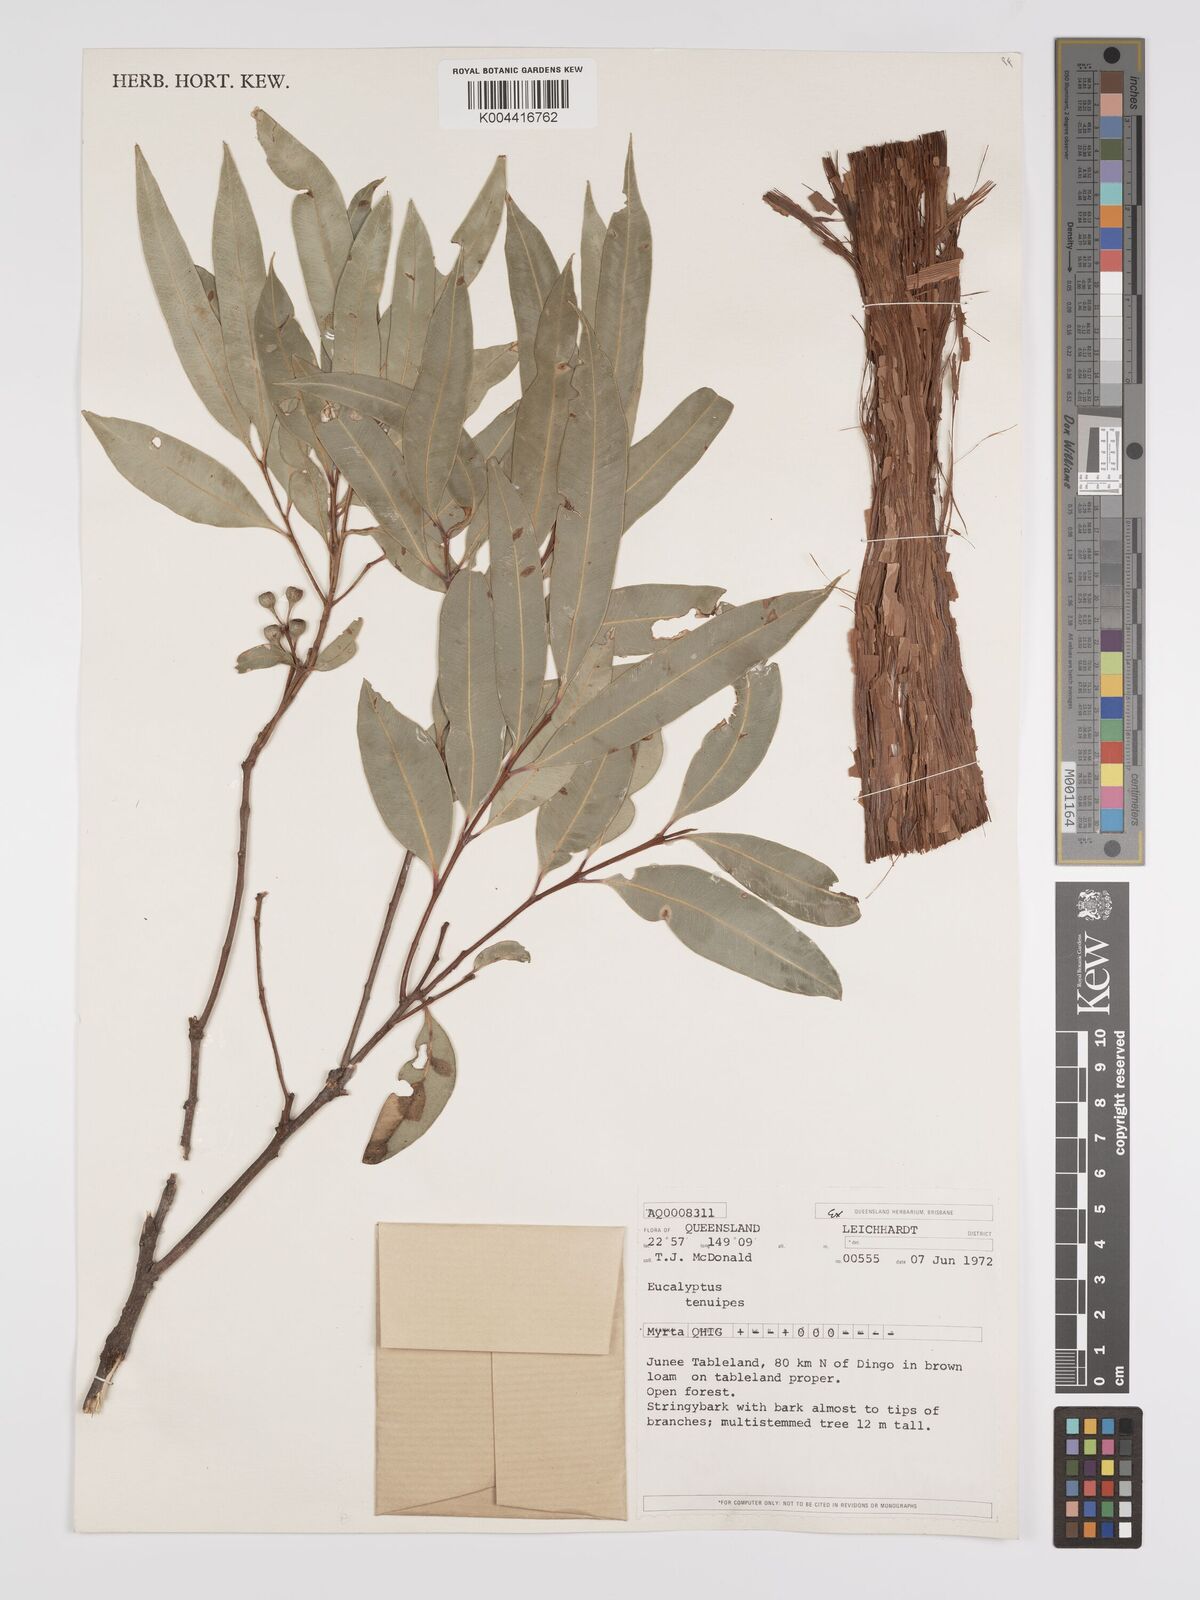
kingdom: Plantae
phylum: Tracheophyta
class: Magnoliopsida
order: Myrtales
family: Myrtaceae
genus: Eucalyptus
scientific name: Eucalyptus tenuipes
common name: Narrow-leaved white mahogany
